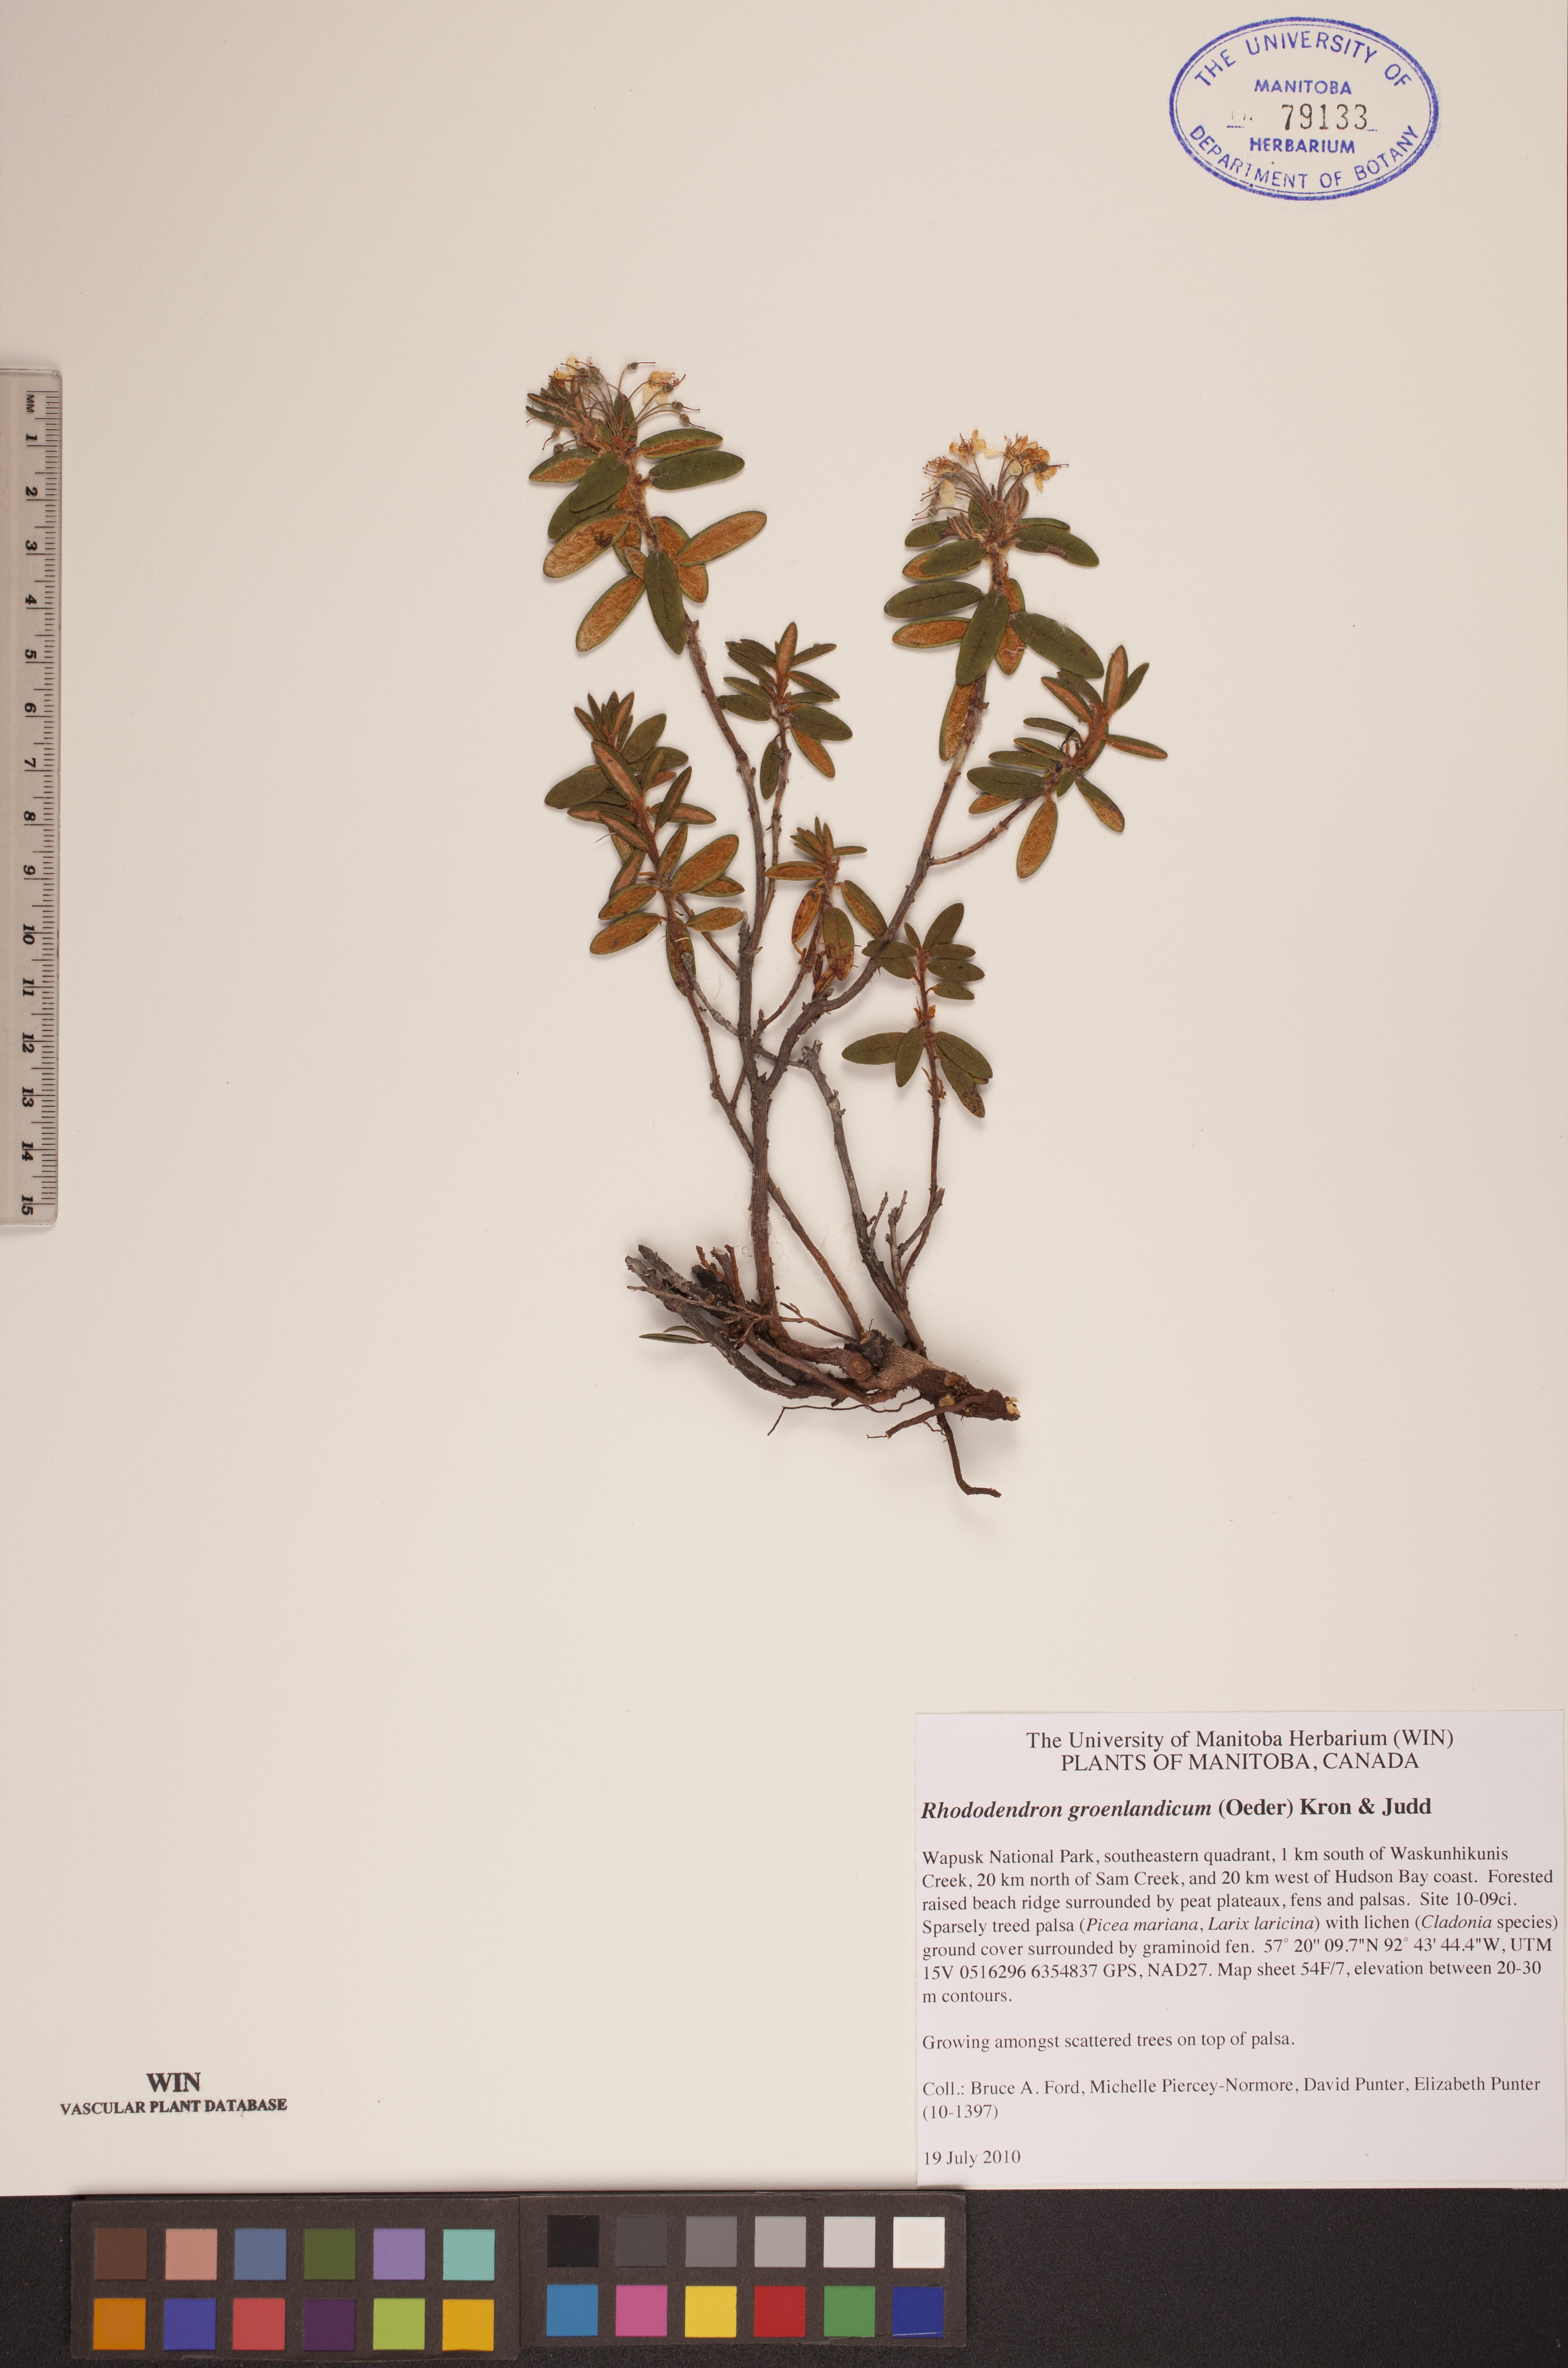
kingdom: Plantae
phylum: Tracheophyta
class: Magnoliopsida
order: Ericales
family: Ericaceae
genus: Rhododendron
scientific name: Rhododendron groenlandicum
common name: Bog labrador tea
